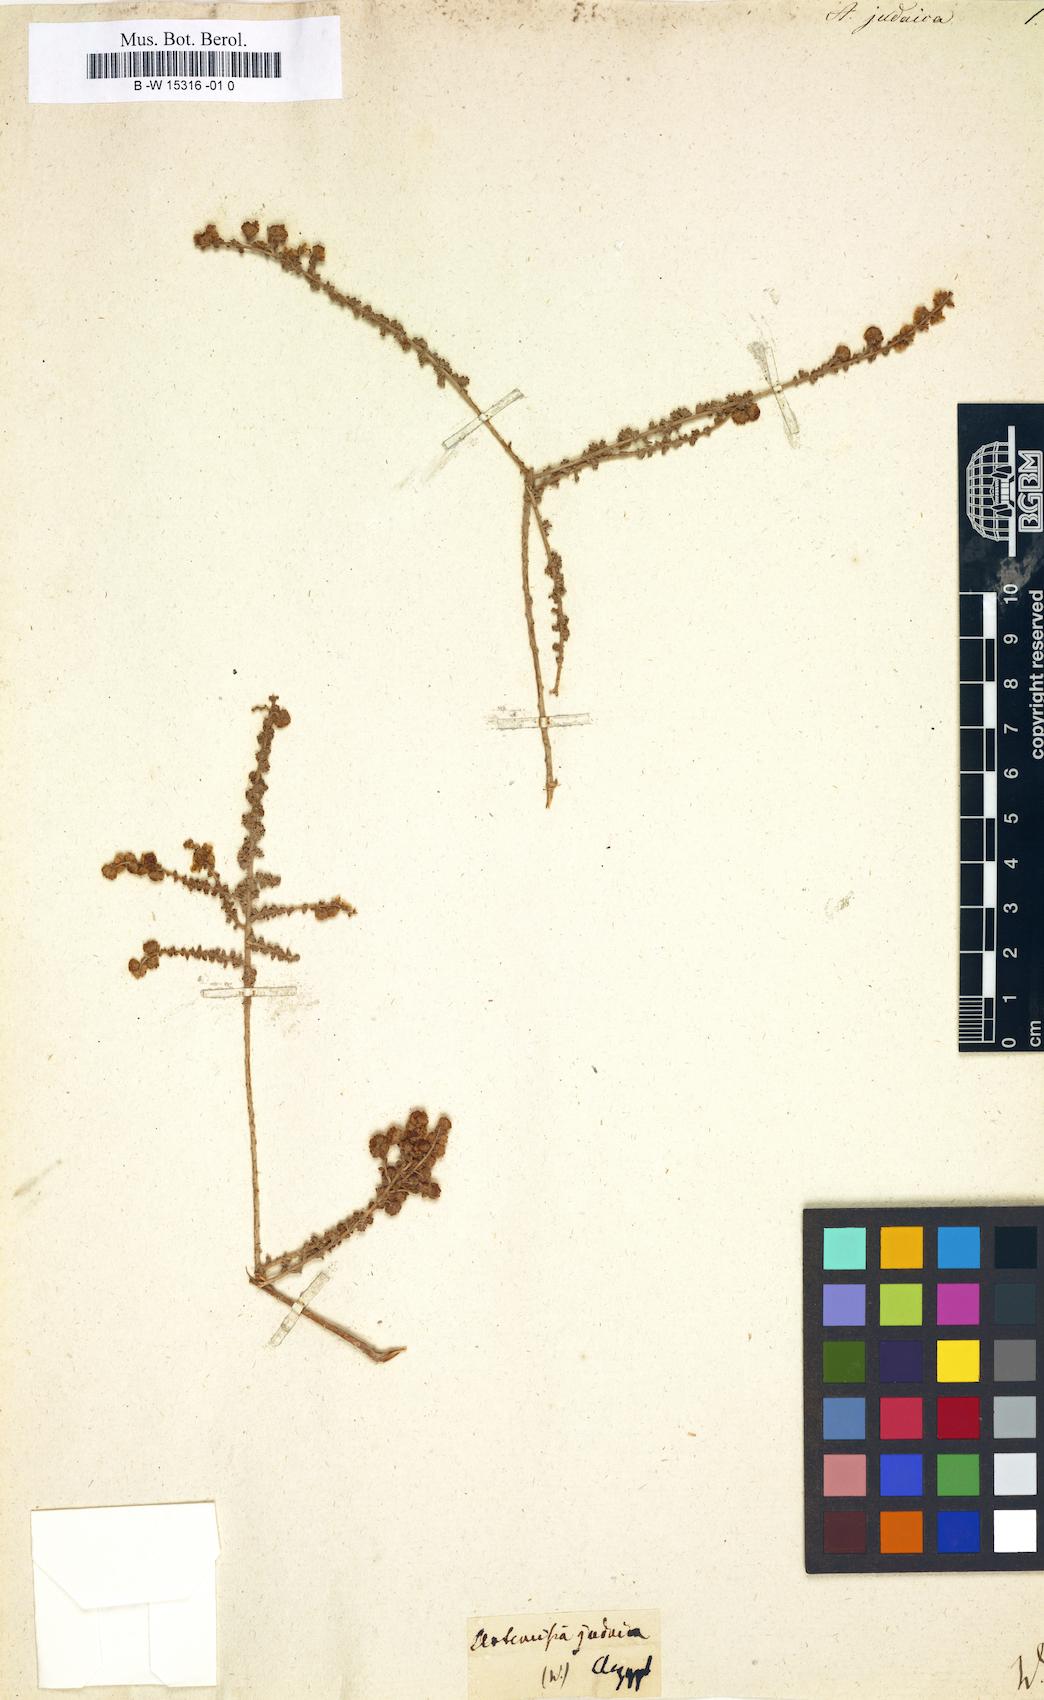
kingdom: Plantae
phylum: Tracheophyta
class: Magnoliopsida
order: Asterales
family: Asteraceae
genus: Artemisia
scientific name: Artemisia judaica
